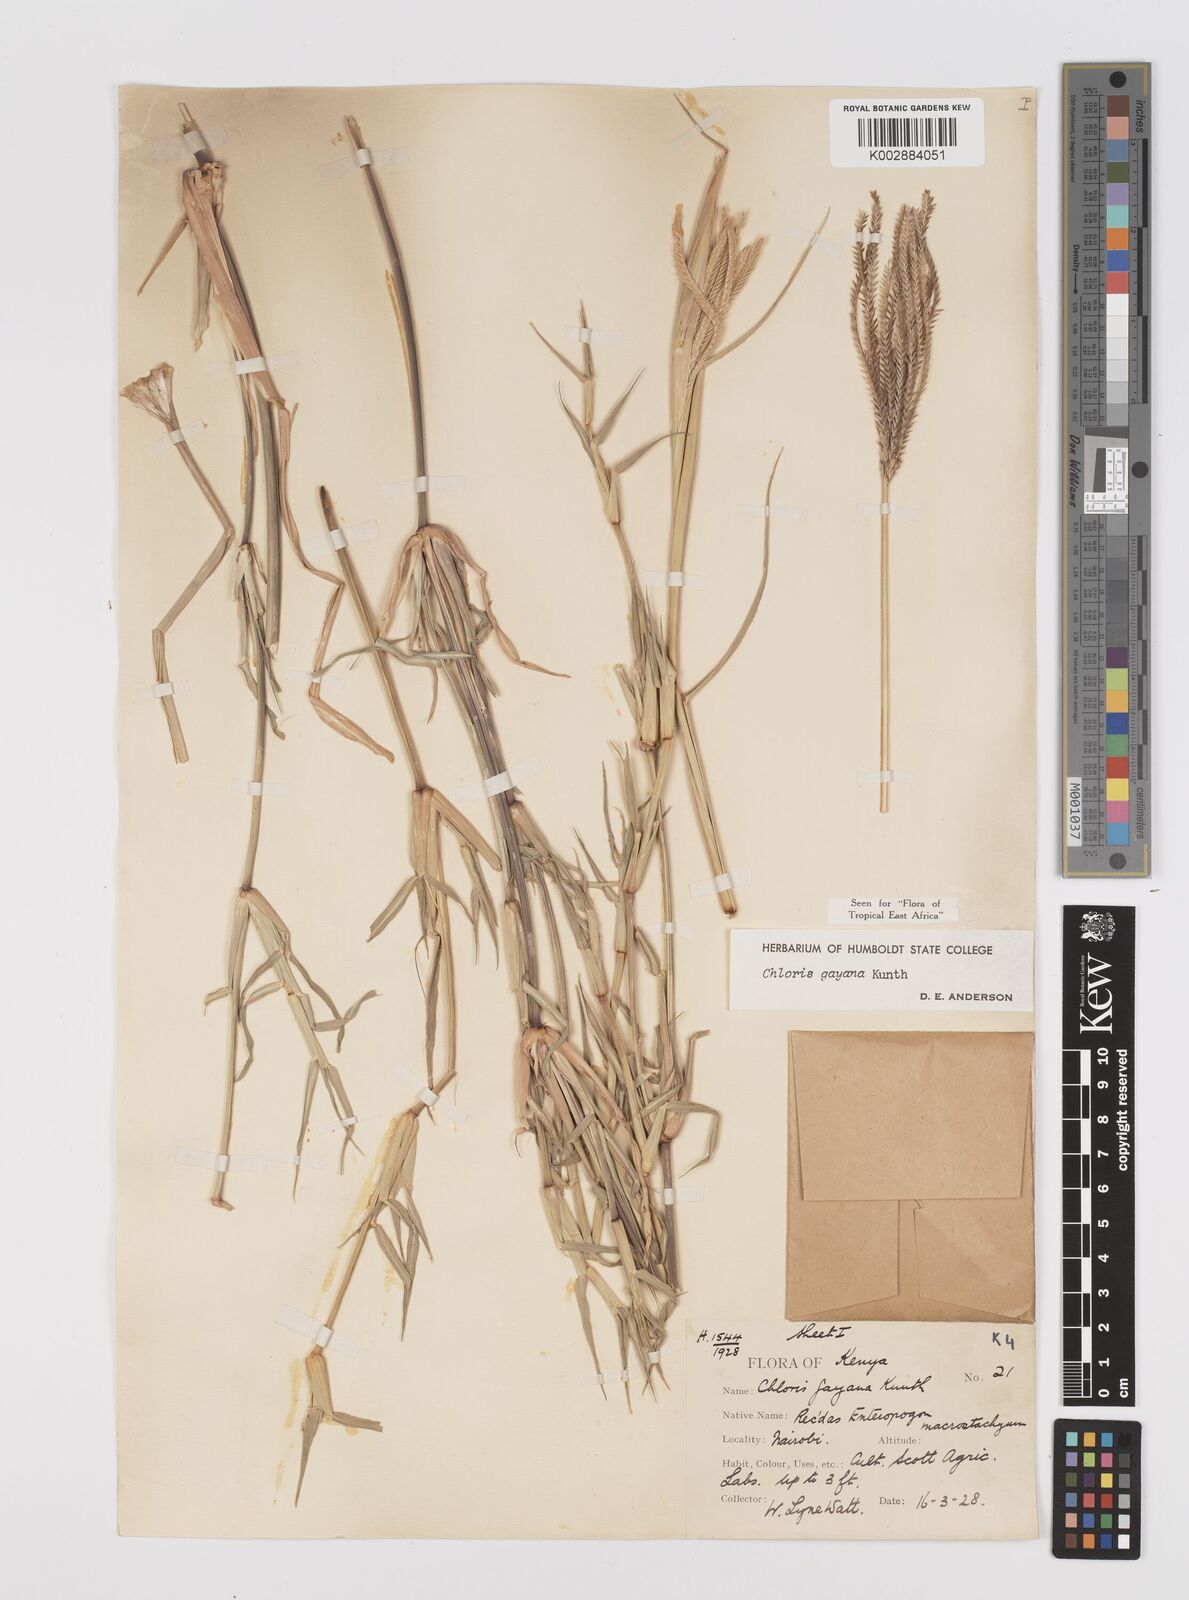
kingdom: Plantae
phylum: Tracheophyta
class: Liliopsida
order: Poales
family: Poaceae
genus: Chloris
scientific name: Chloris gayana
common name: Rhodes grass
